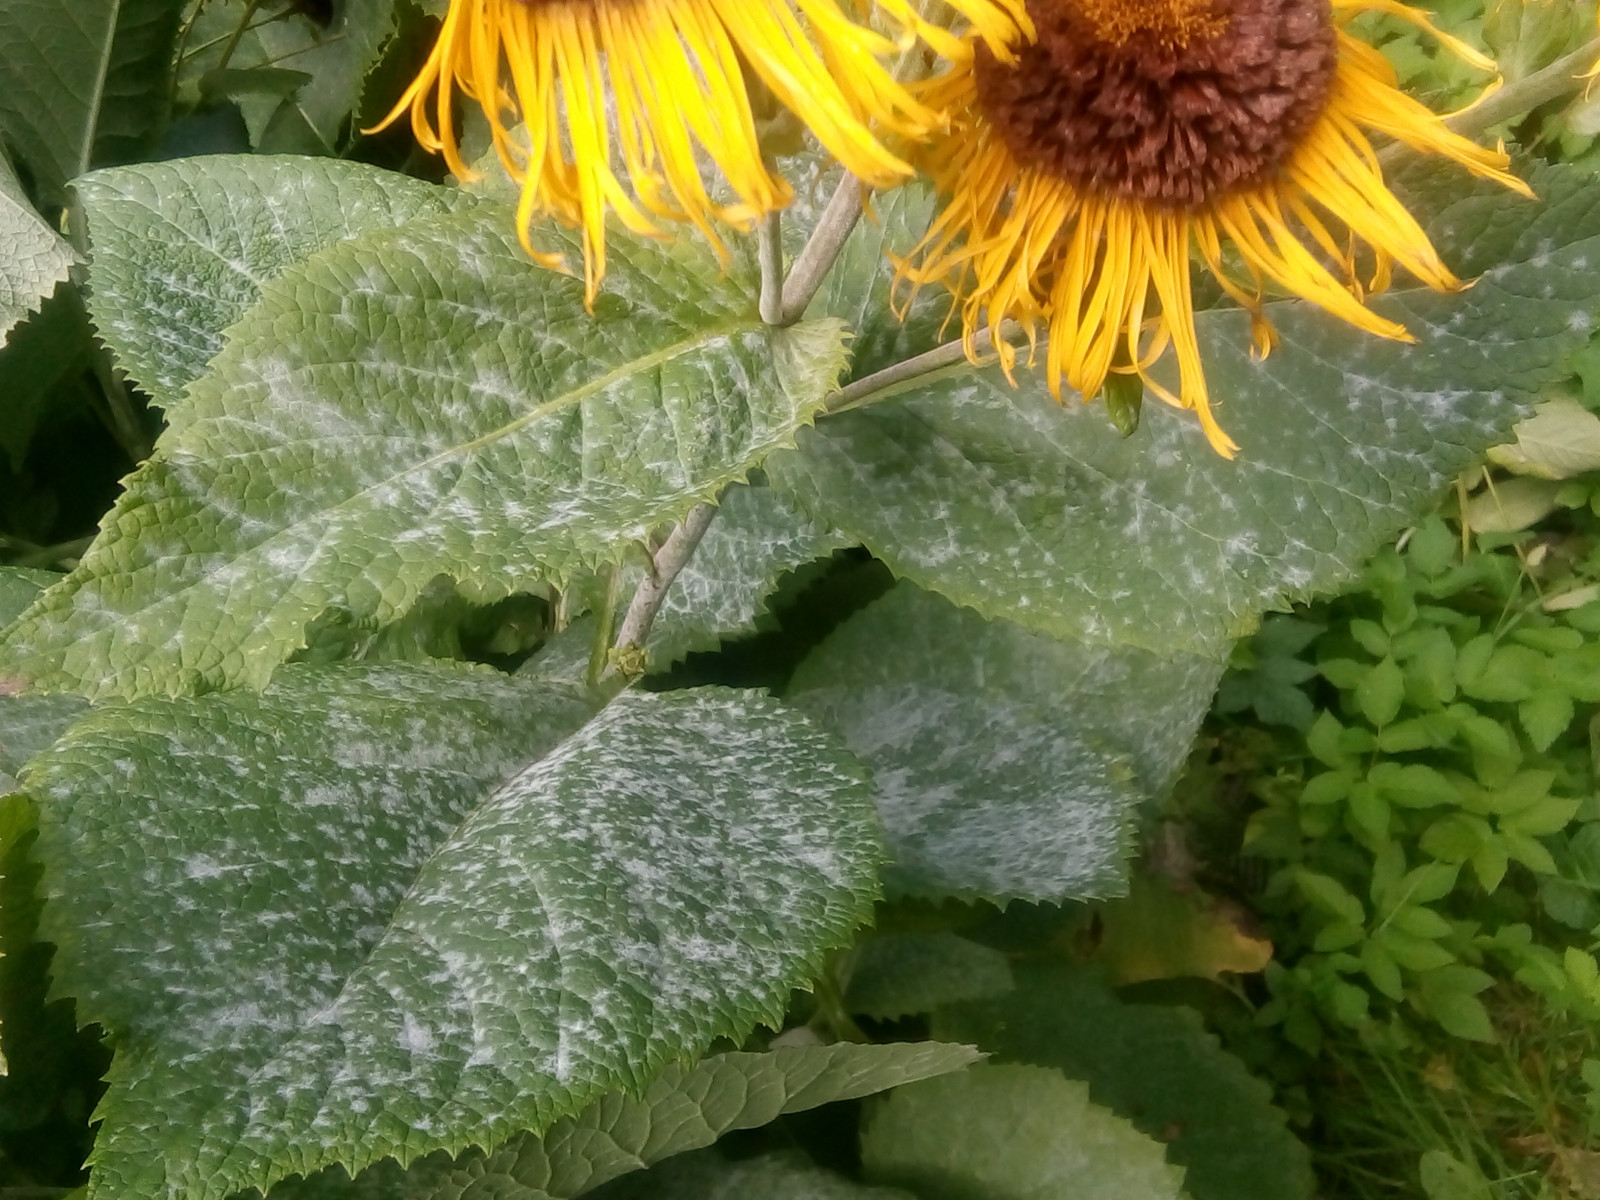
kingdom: Fungi
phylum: Ascomycota
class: Leotiomycetes
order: Helotiales
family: Erysiphaceae
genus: Golovinomyces
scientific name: Golovinomyces inulae
